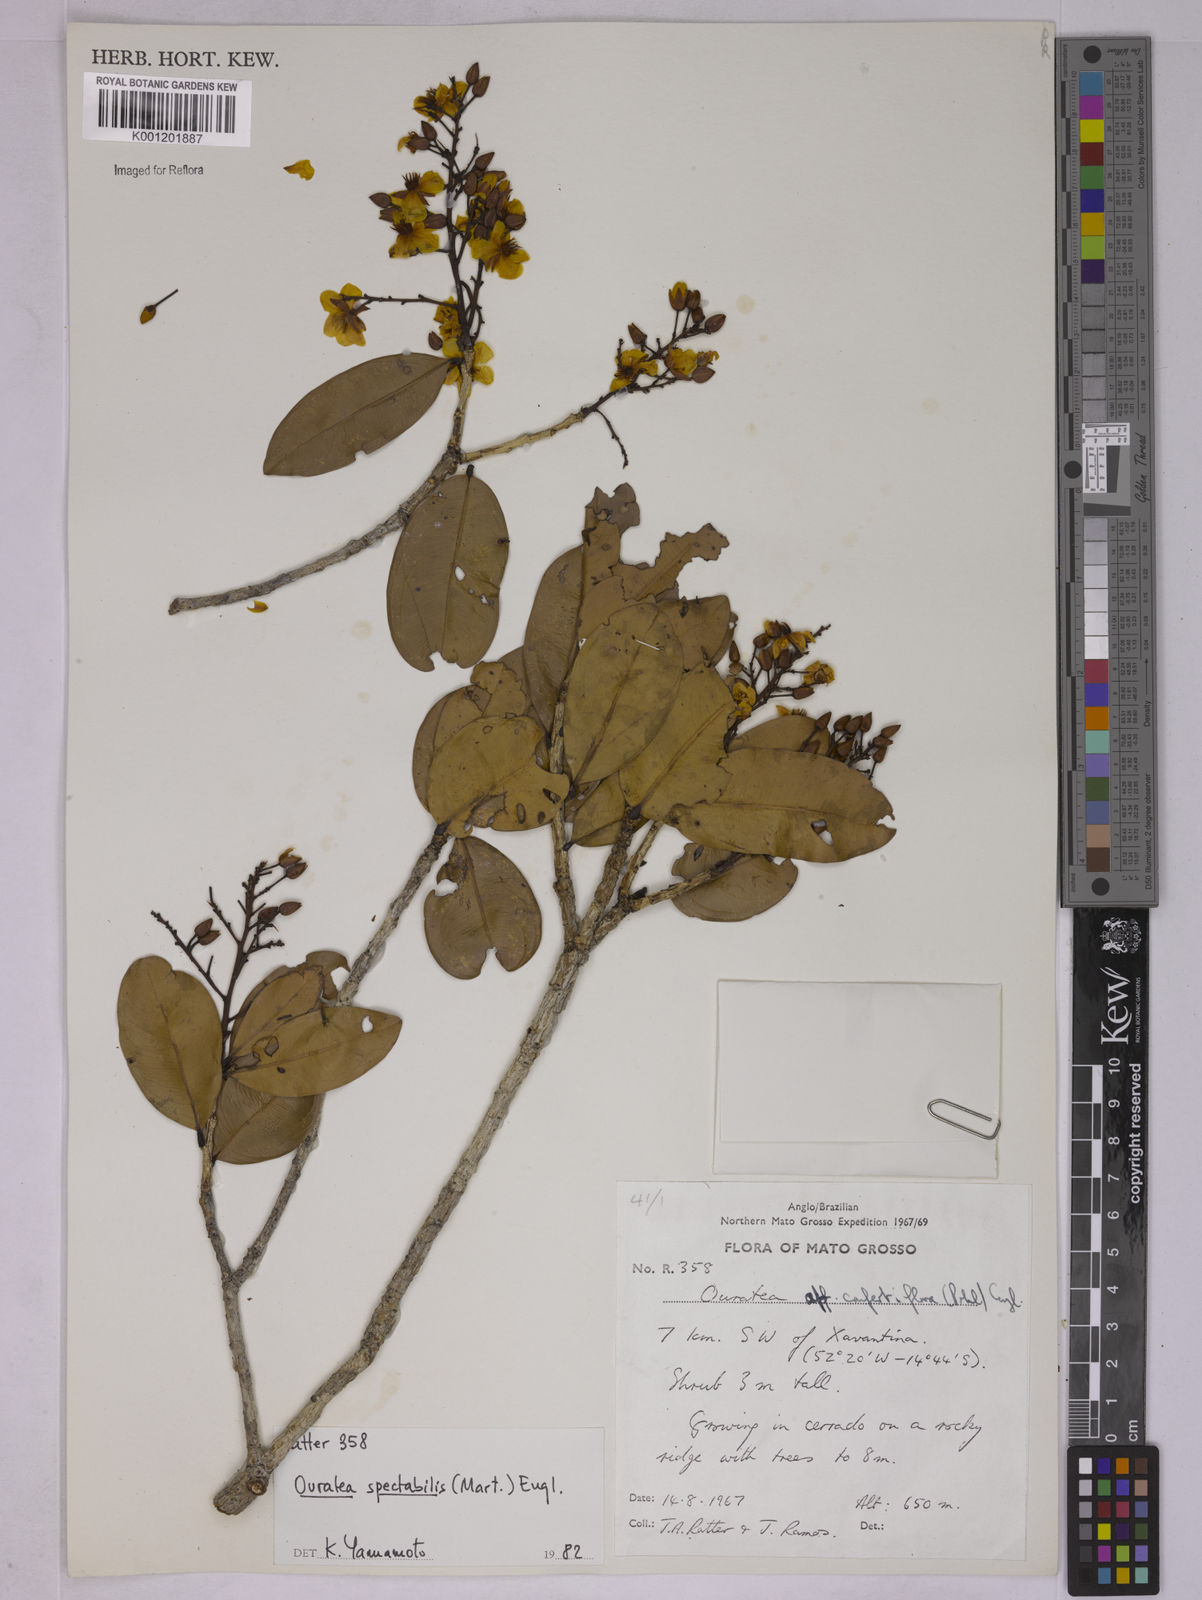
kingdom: Plantae
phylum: Tracheophyta
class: Magnoliopsida
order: Malpighiales
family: Ochnaceae
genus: Ouratea
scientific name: Ouratea spectabilis
